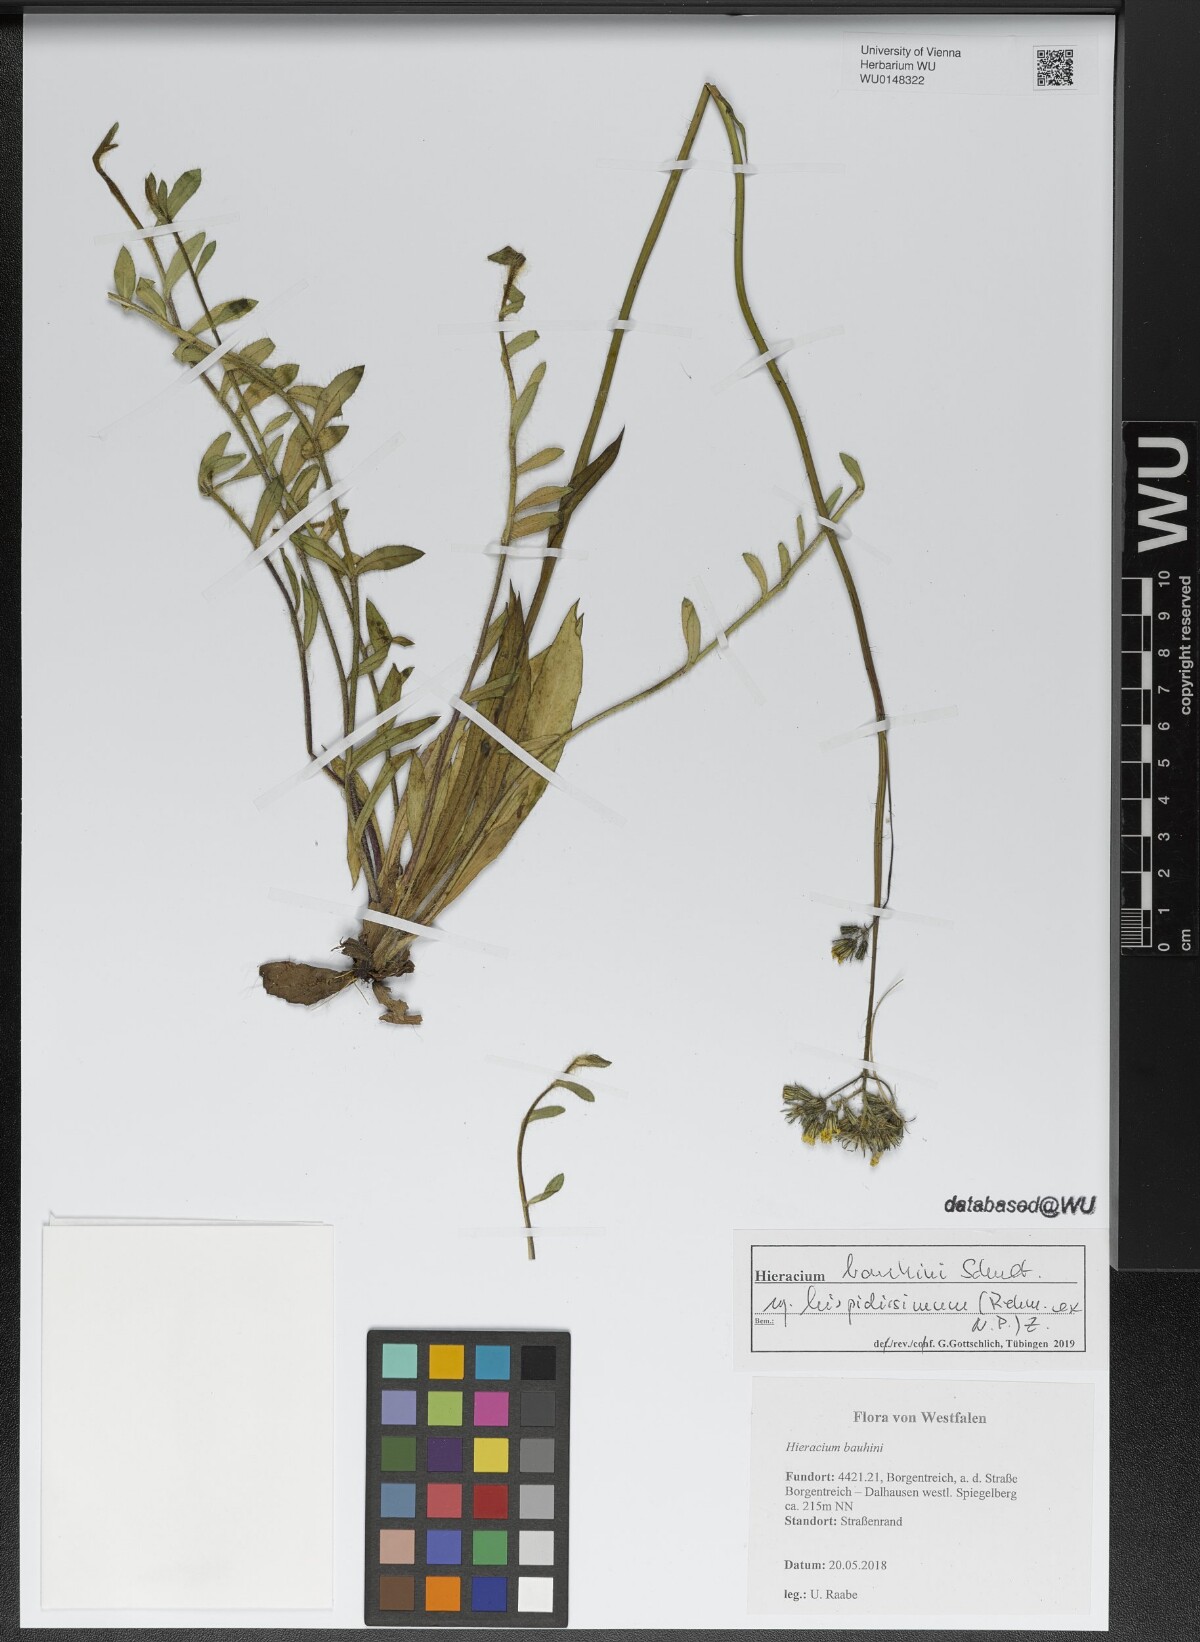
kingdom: Plantae
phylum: Tracheophyta
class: Magnoliopsida
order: Asterales
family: Asteraceae
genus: Pilosella
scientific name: Pilosella bauhini
